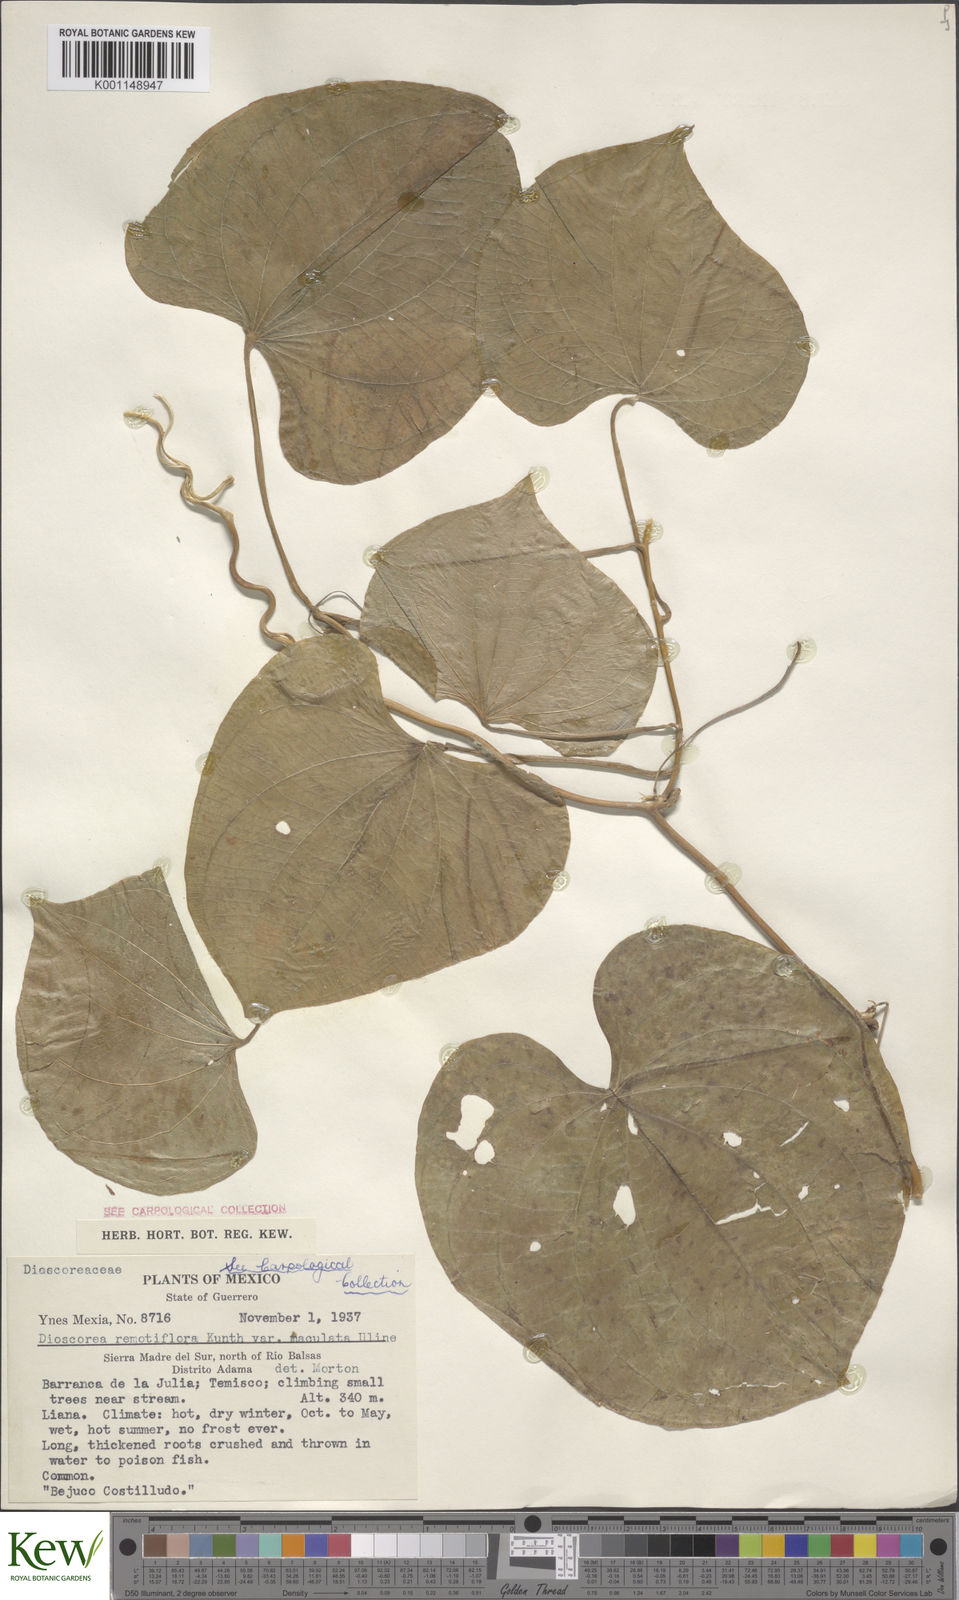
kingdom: Plantae
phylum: Tracheophyta
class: Liliopsida
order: Dioscoreales
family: Dioscoreaceae
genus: Dioscorea
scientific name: Dioscorea remotiflora
